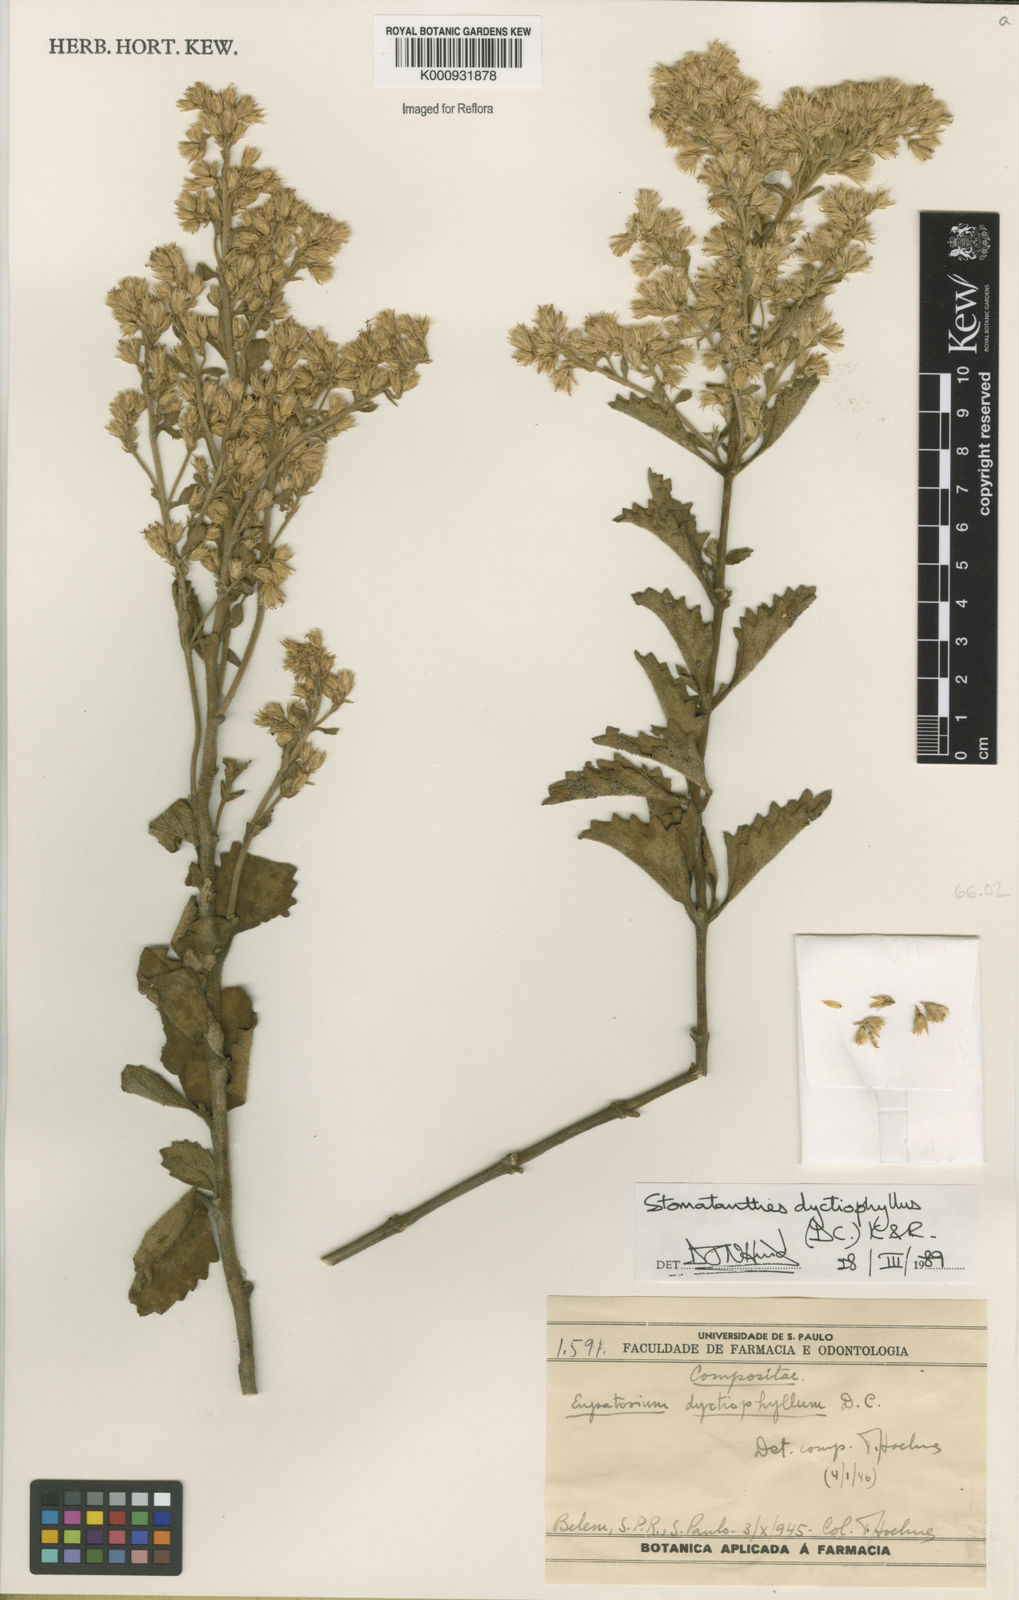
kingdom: Plantae
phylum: Tracheophyta
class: Magnoliopsida
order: Asterales
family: Asteraceae
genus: Stomatanthes
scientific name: Stomatanthes dictyophyllus
